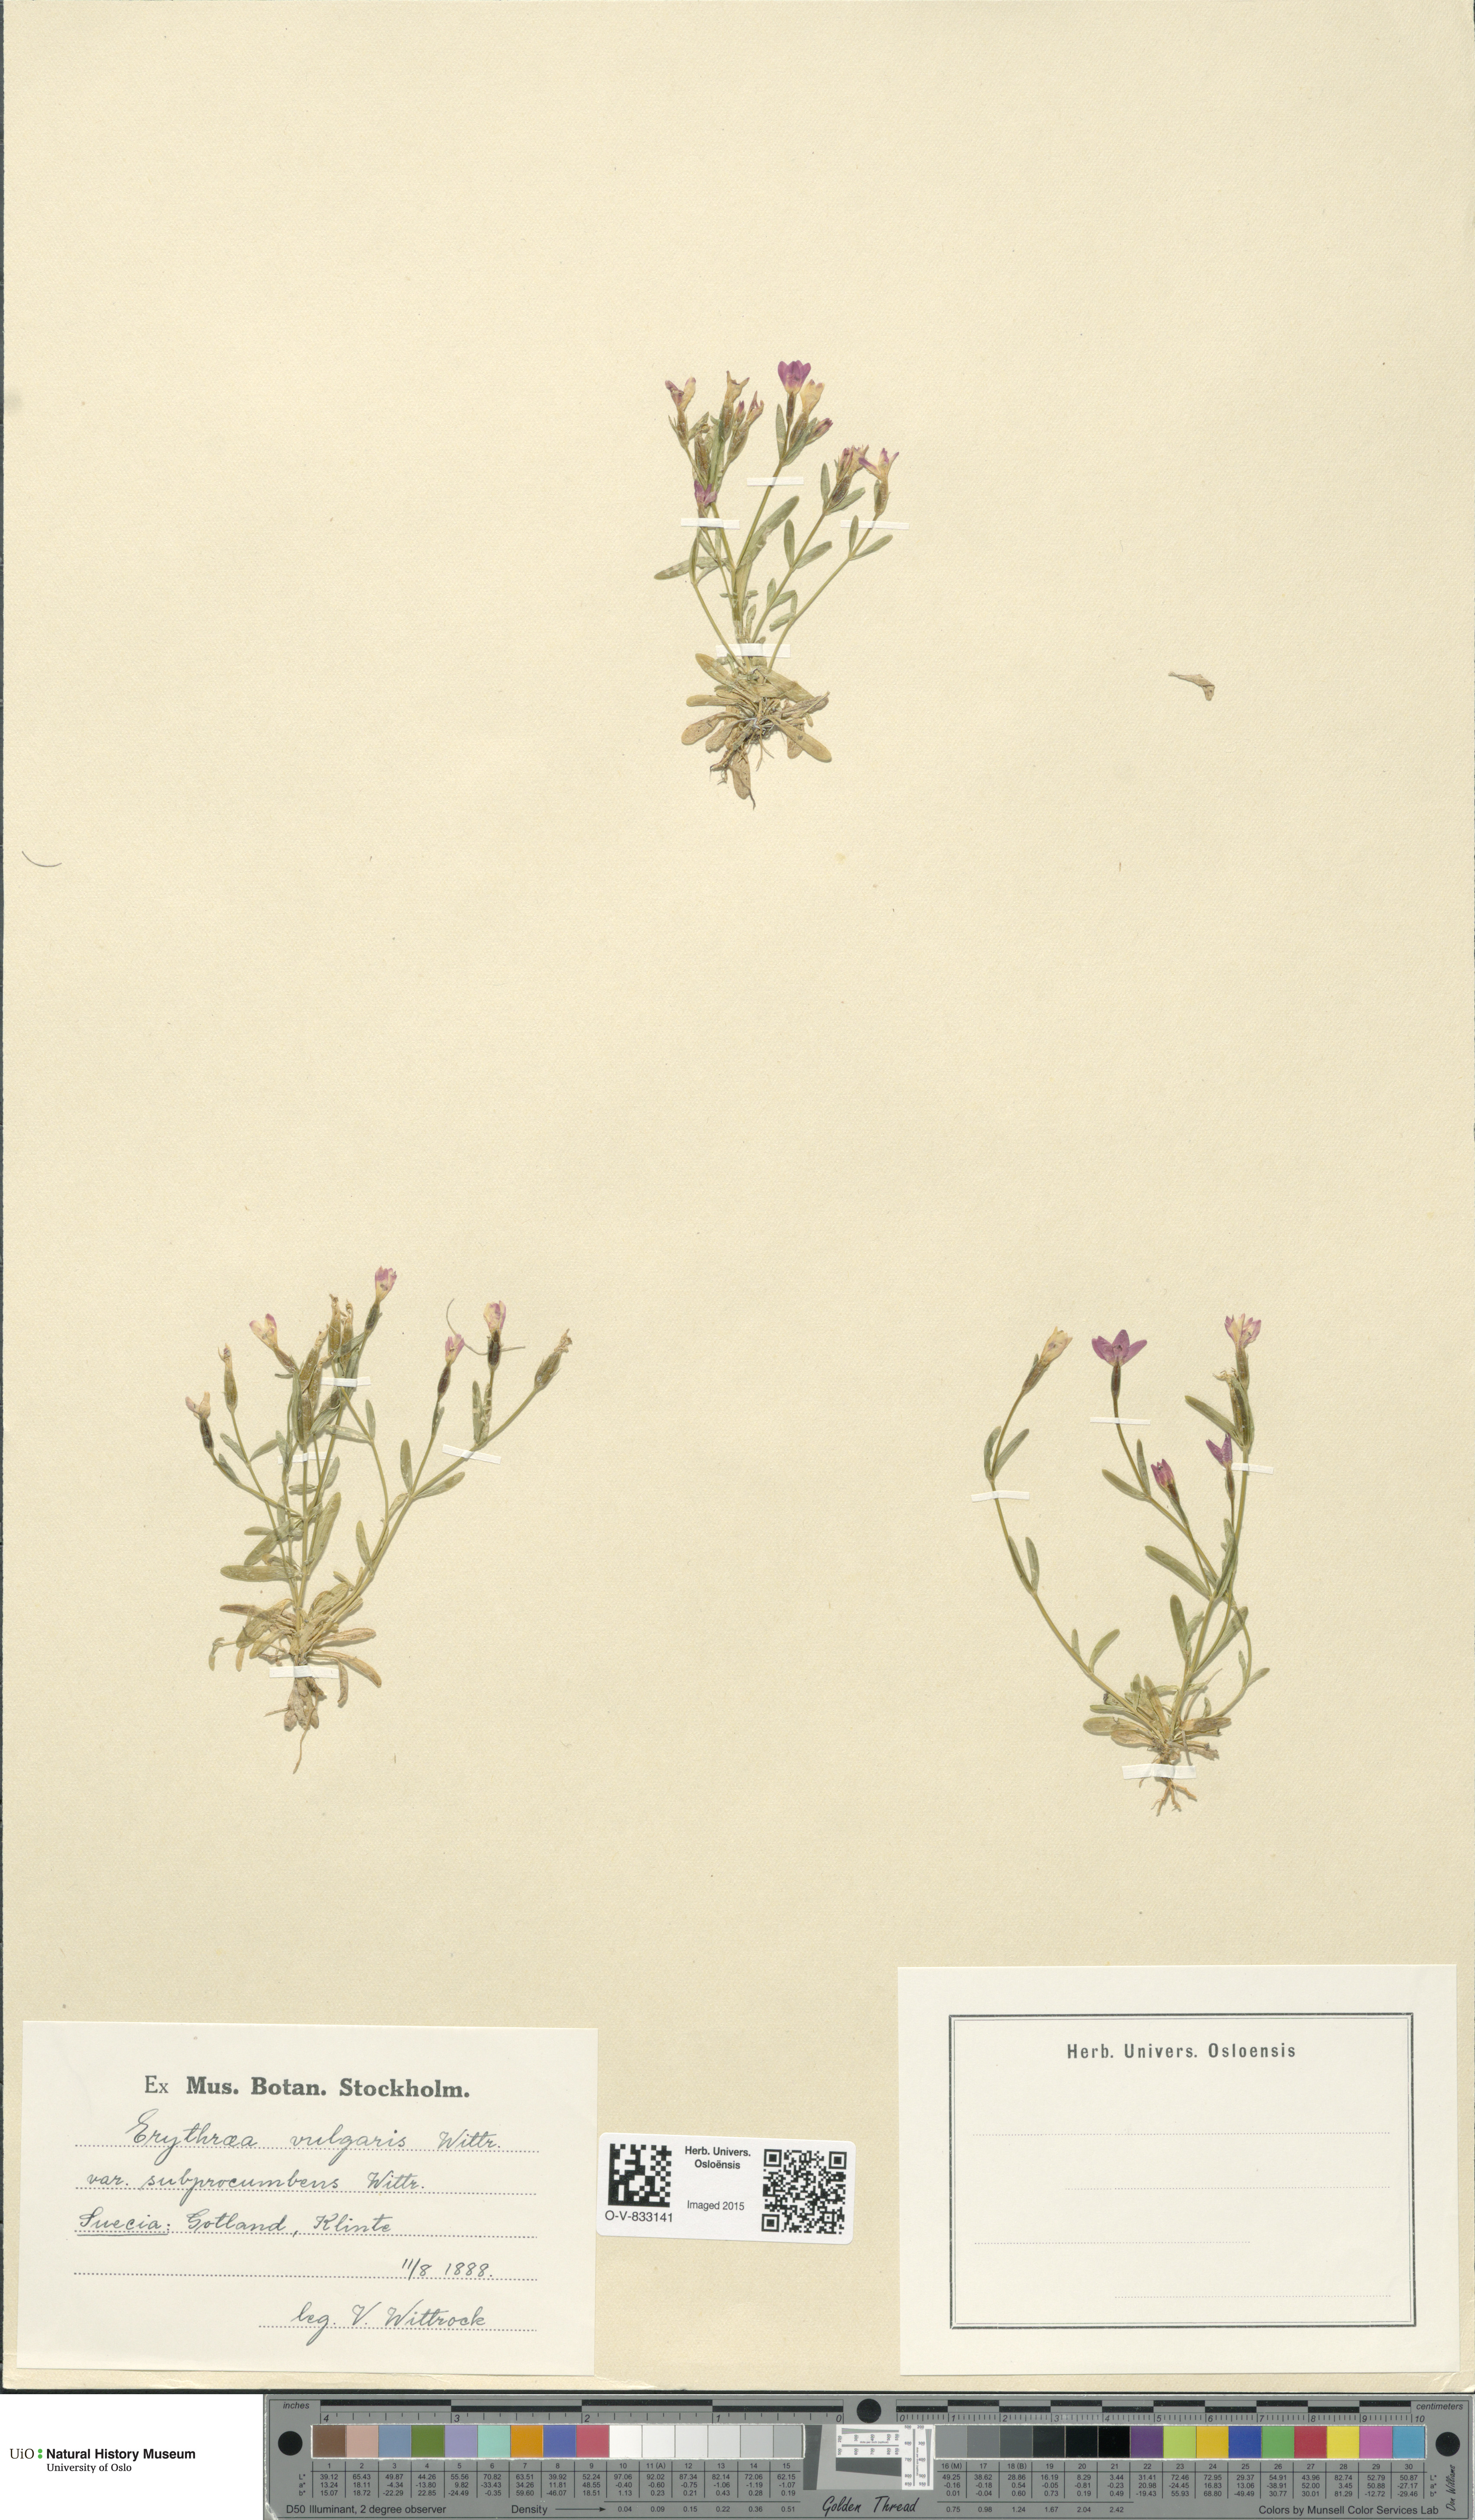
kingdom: Plantae
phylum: Tracheophyta
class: Magnoliopsida
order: Gentianales
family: Gentianaceae
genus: Centaurium
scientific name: Centaurium littorale
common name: Seaside centaury
